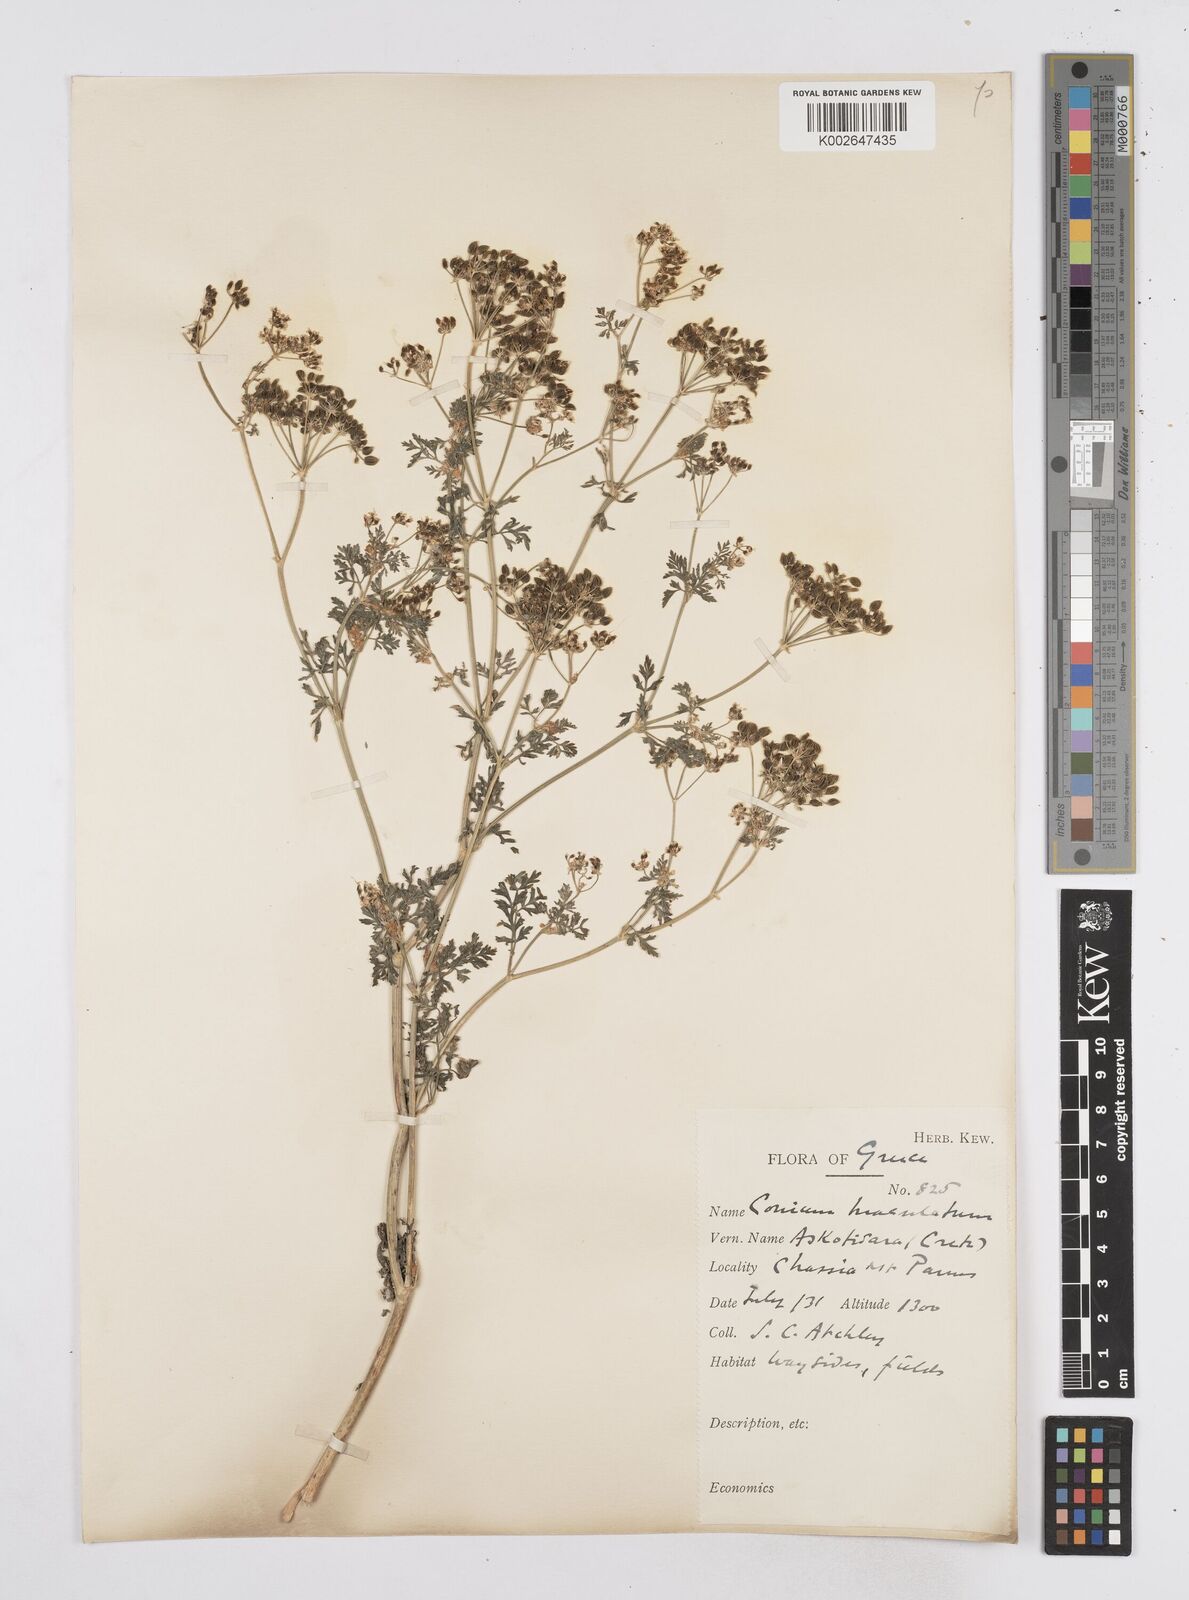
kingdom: Plantae
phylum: Tracheophyta
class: Magnoliopsida
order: Apiales
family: Apiaceae
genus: Conium
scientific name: Conium maculatum
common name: Hemlock
